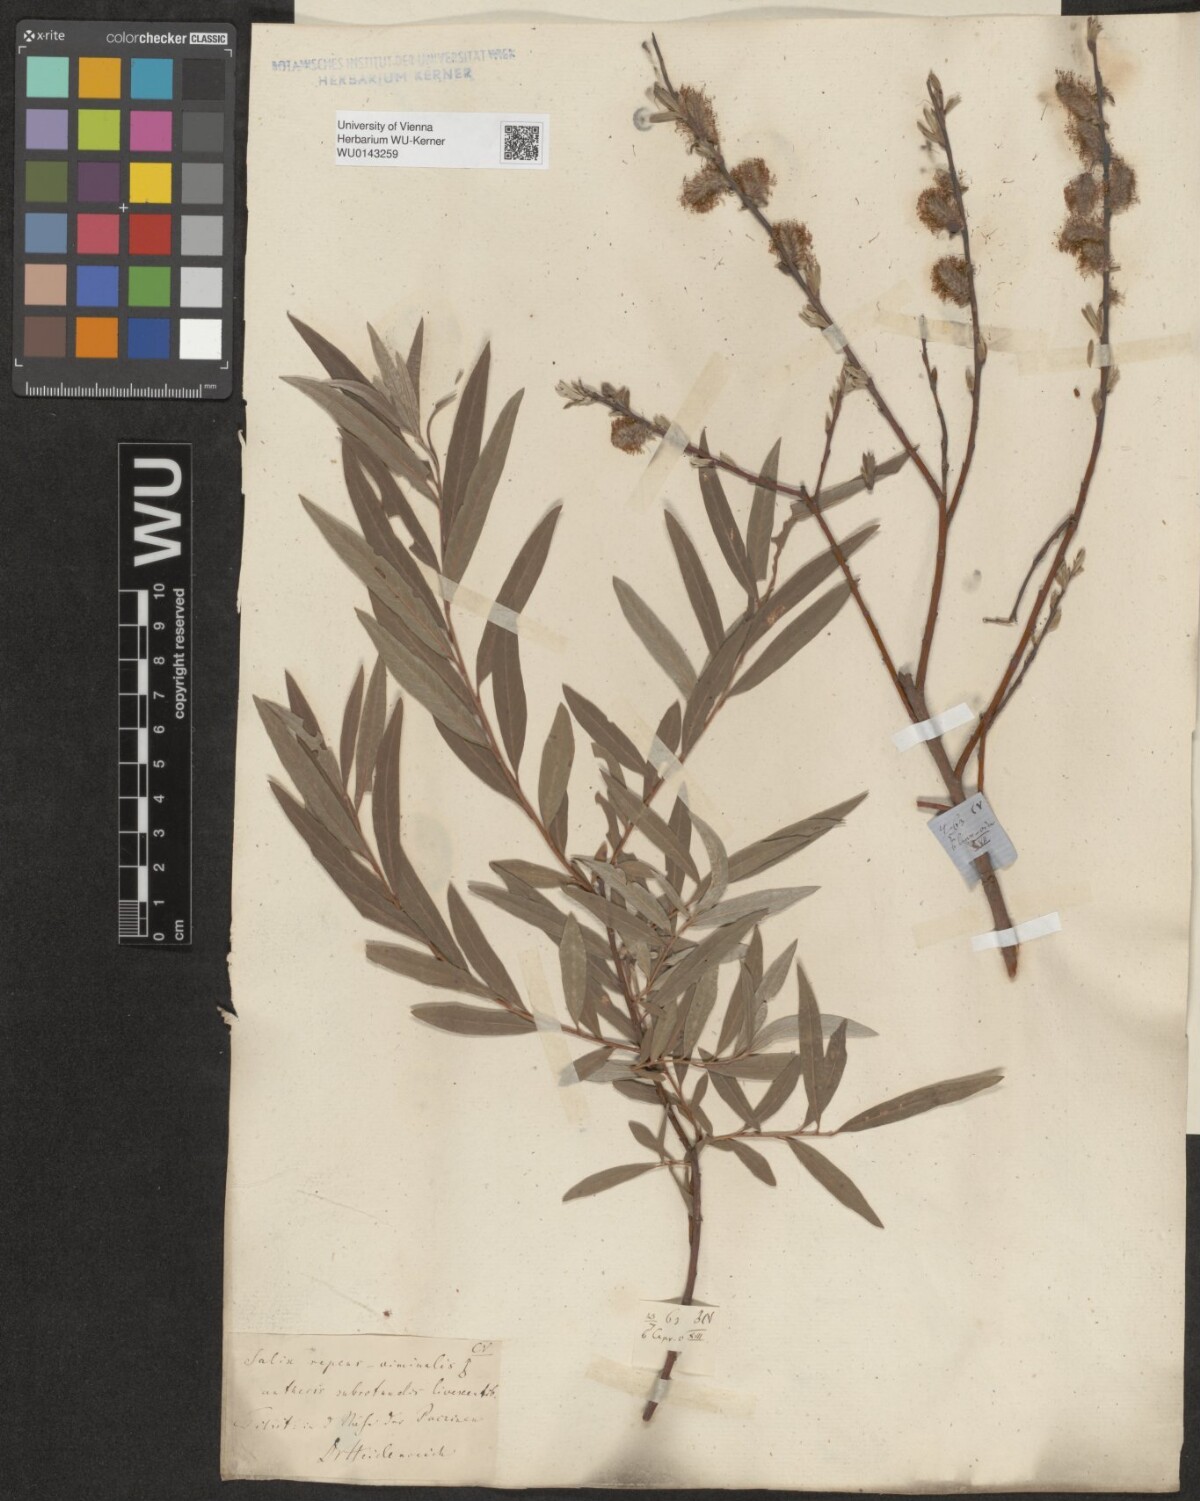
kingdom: Plantae
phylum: Tracheophyta
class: Magnoliopsida
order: Malpighiales
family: Salicaceae
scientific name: Salicaceae
